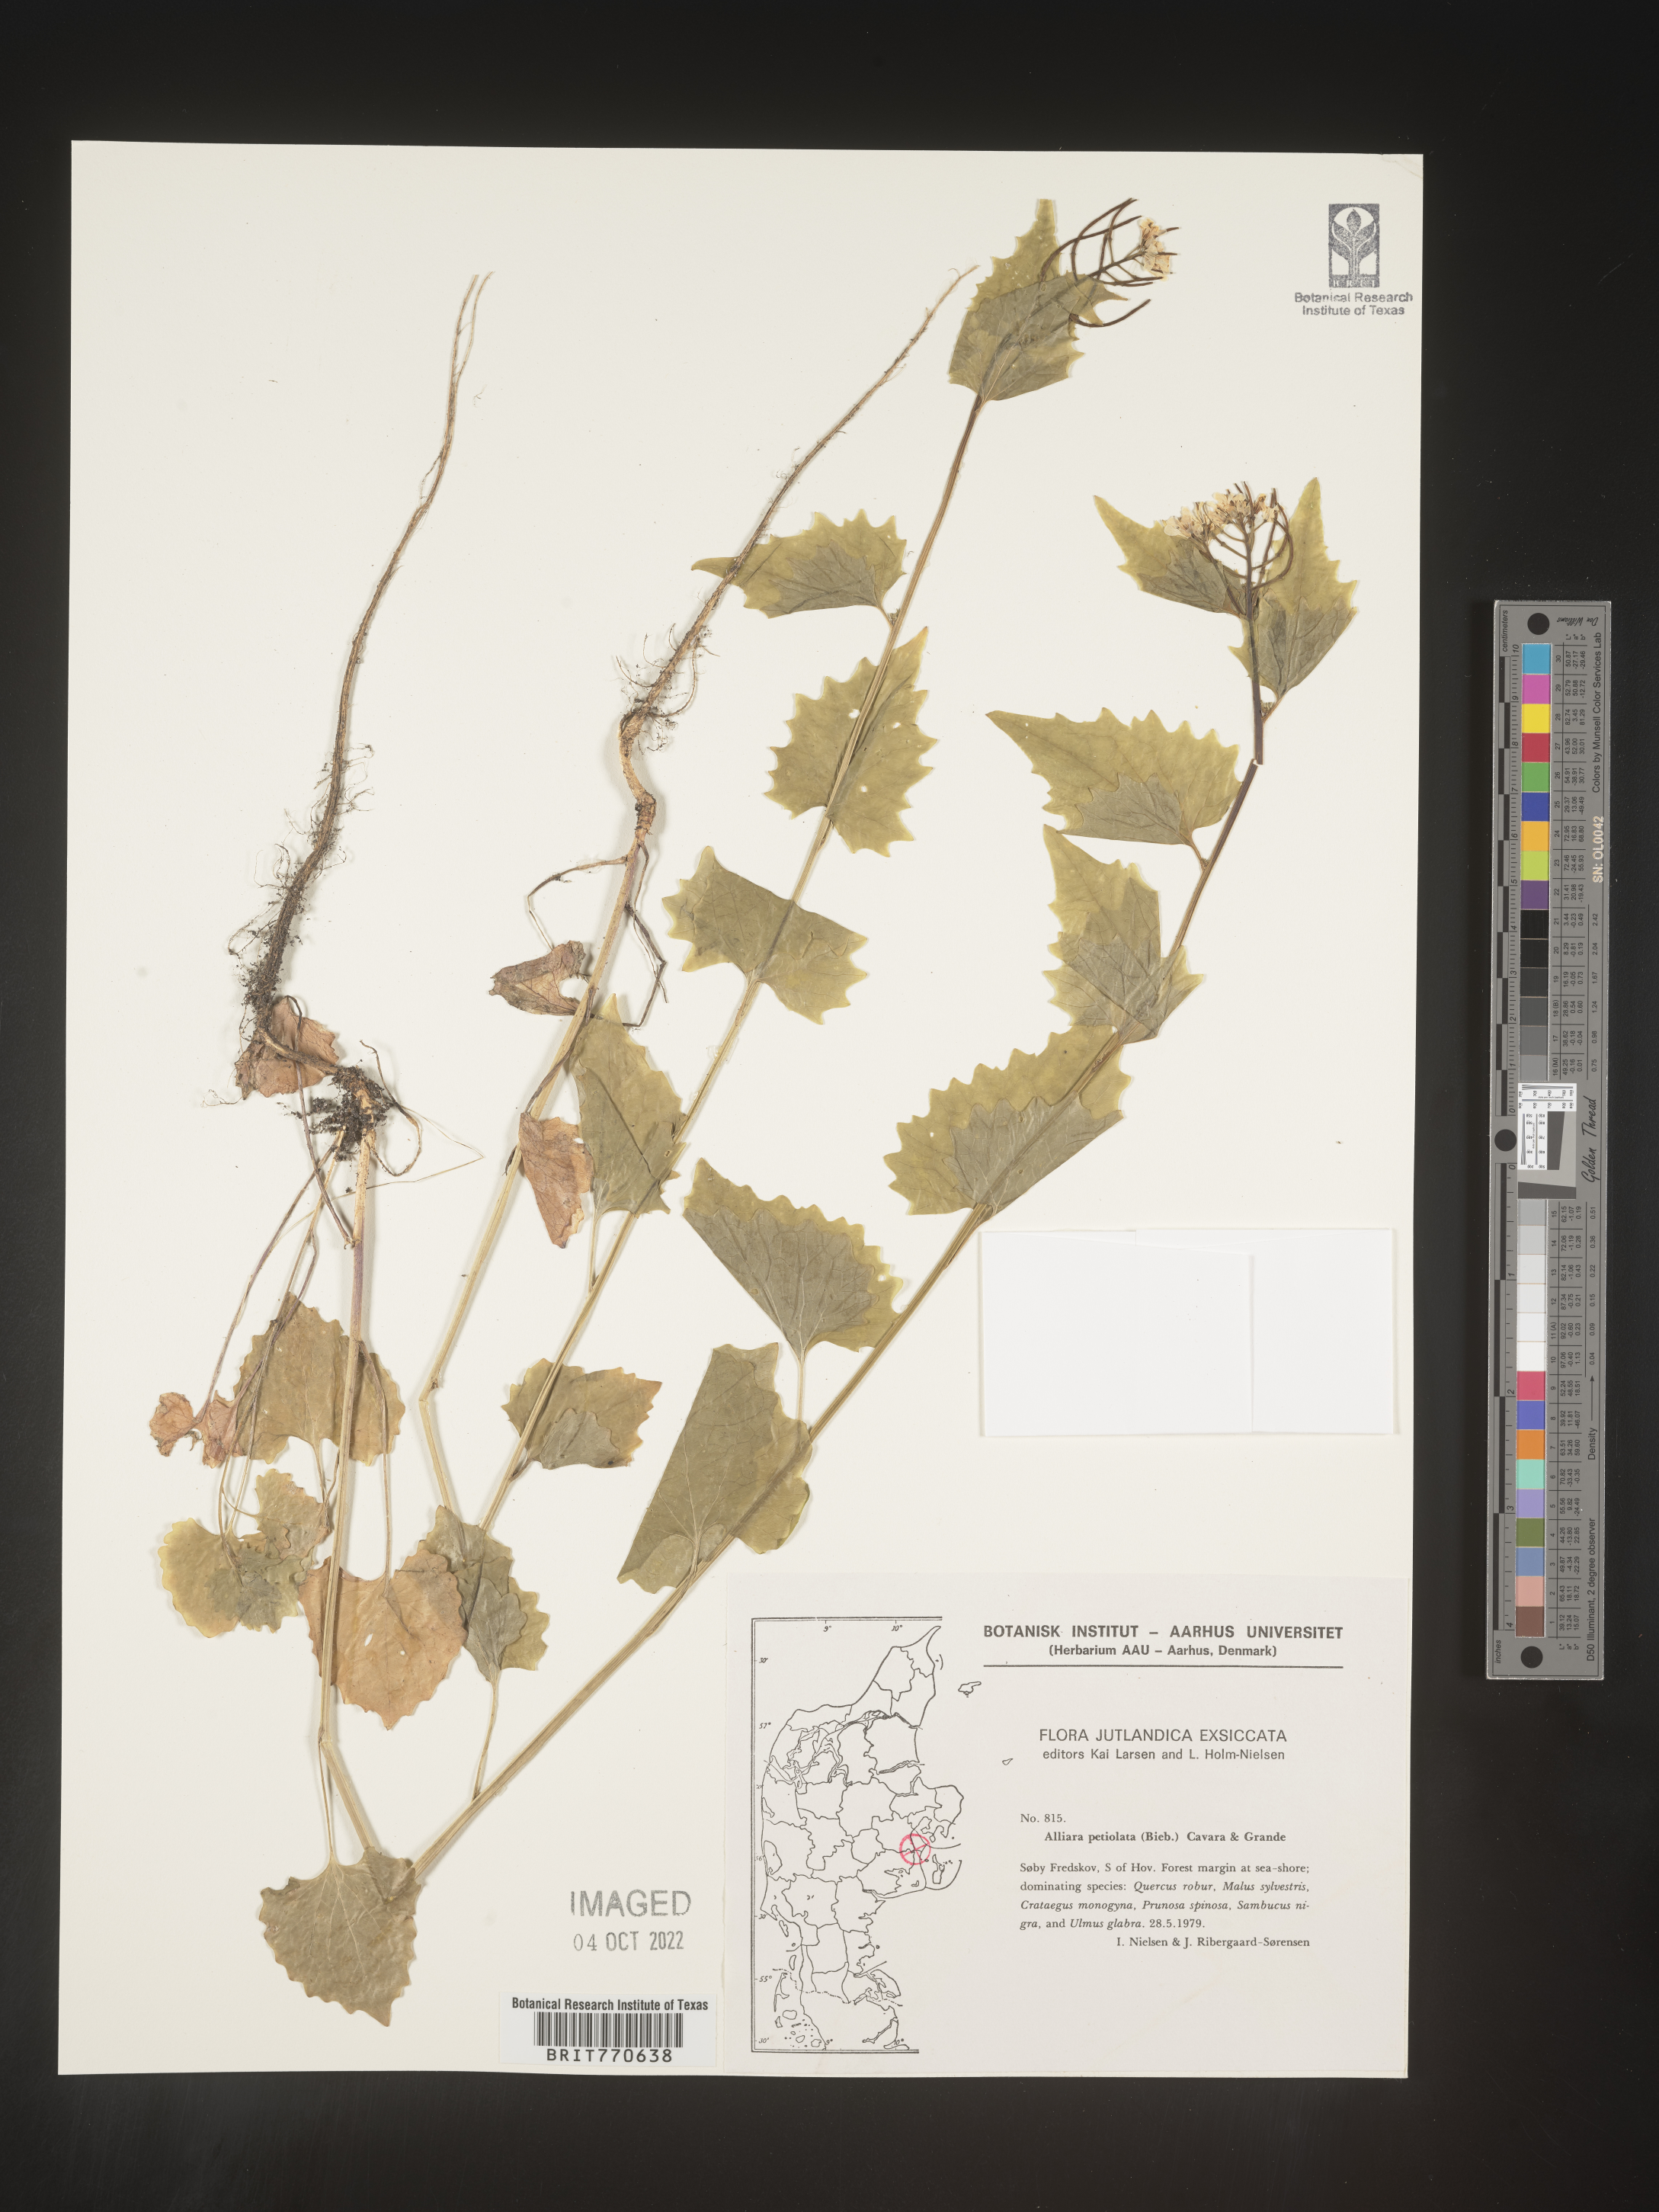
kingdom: Plantae
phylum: Tracheophyta
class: Magnoliopsida
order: Brassicales
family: Brassicaceae
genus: Alliaria
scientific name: Alliaria
